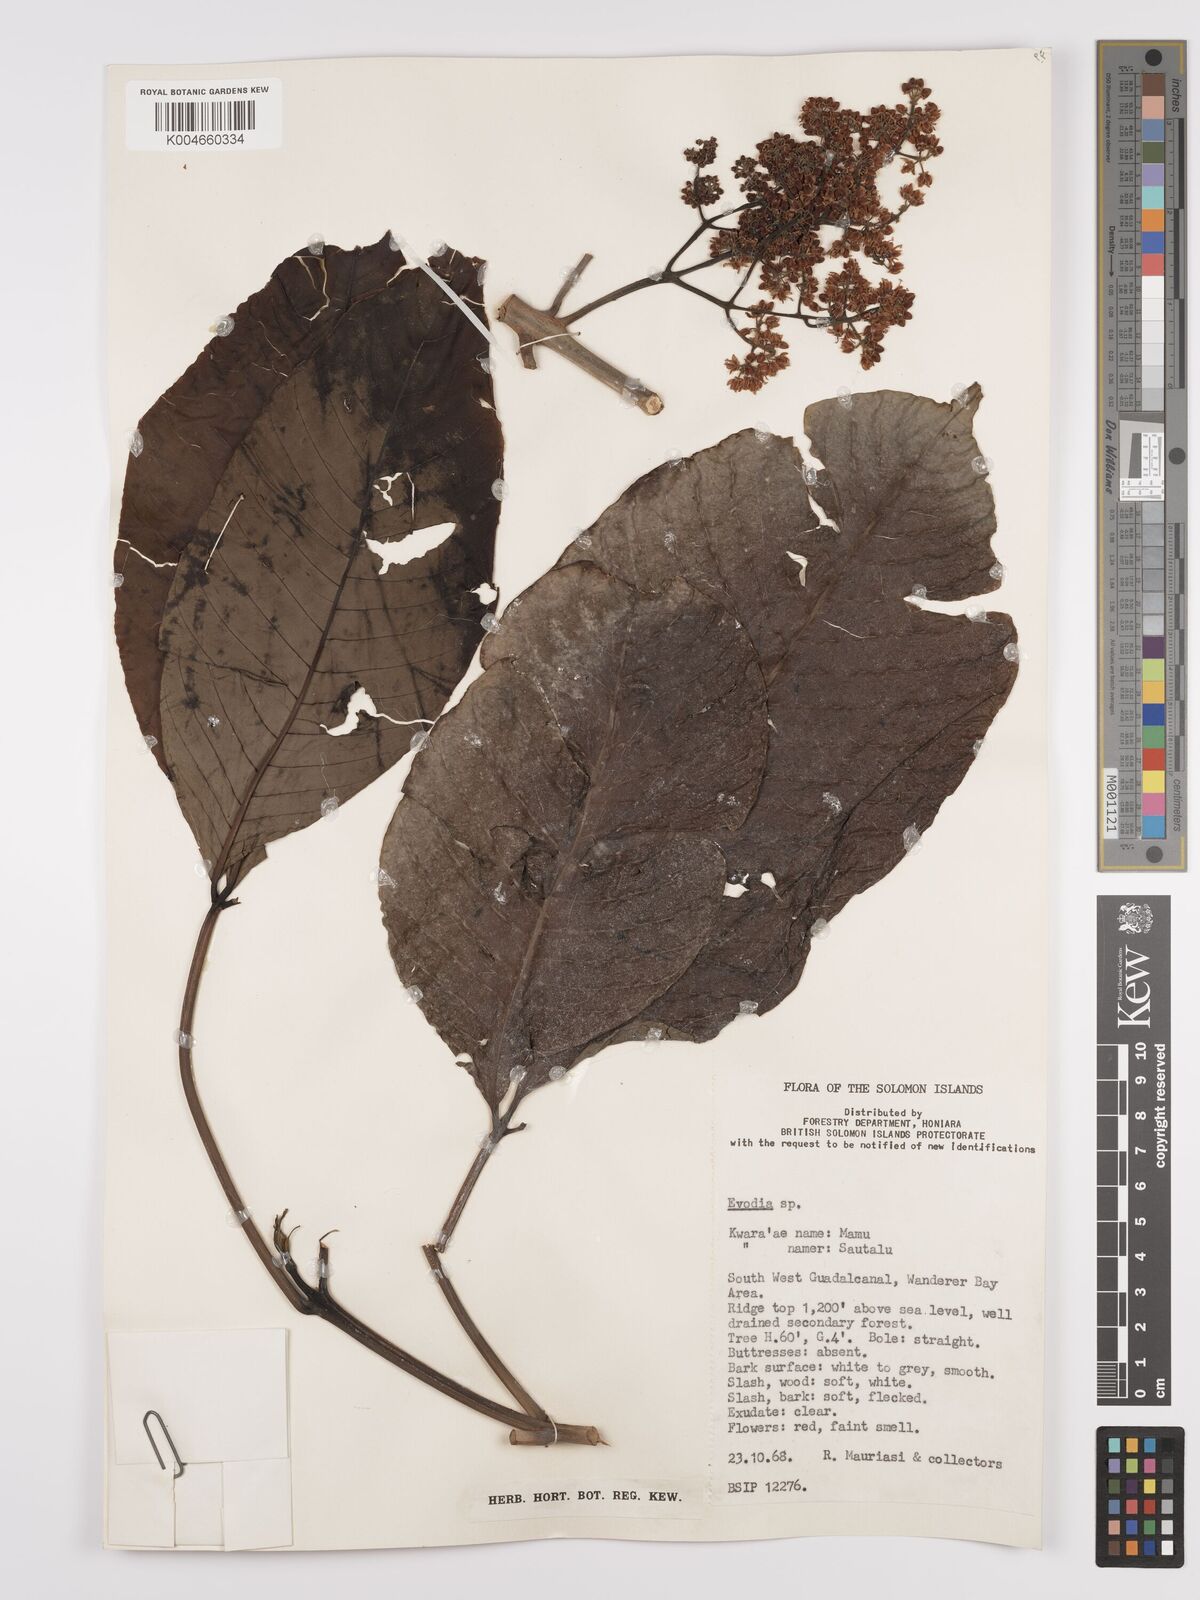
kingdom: Plantae
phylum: Tracheophyta
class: Magnoliopsida
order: Sapindales
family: Rutaceae
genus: Euodia
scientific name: Euodia
